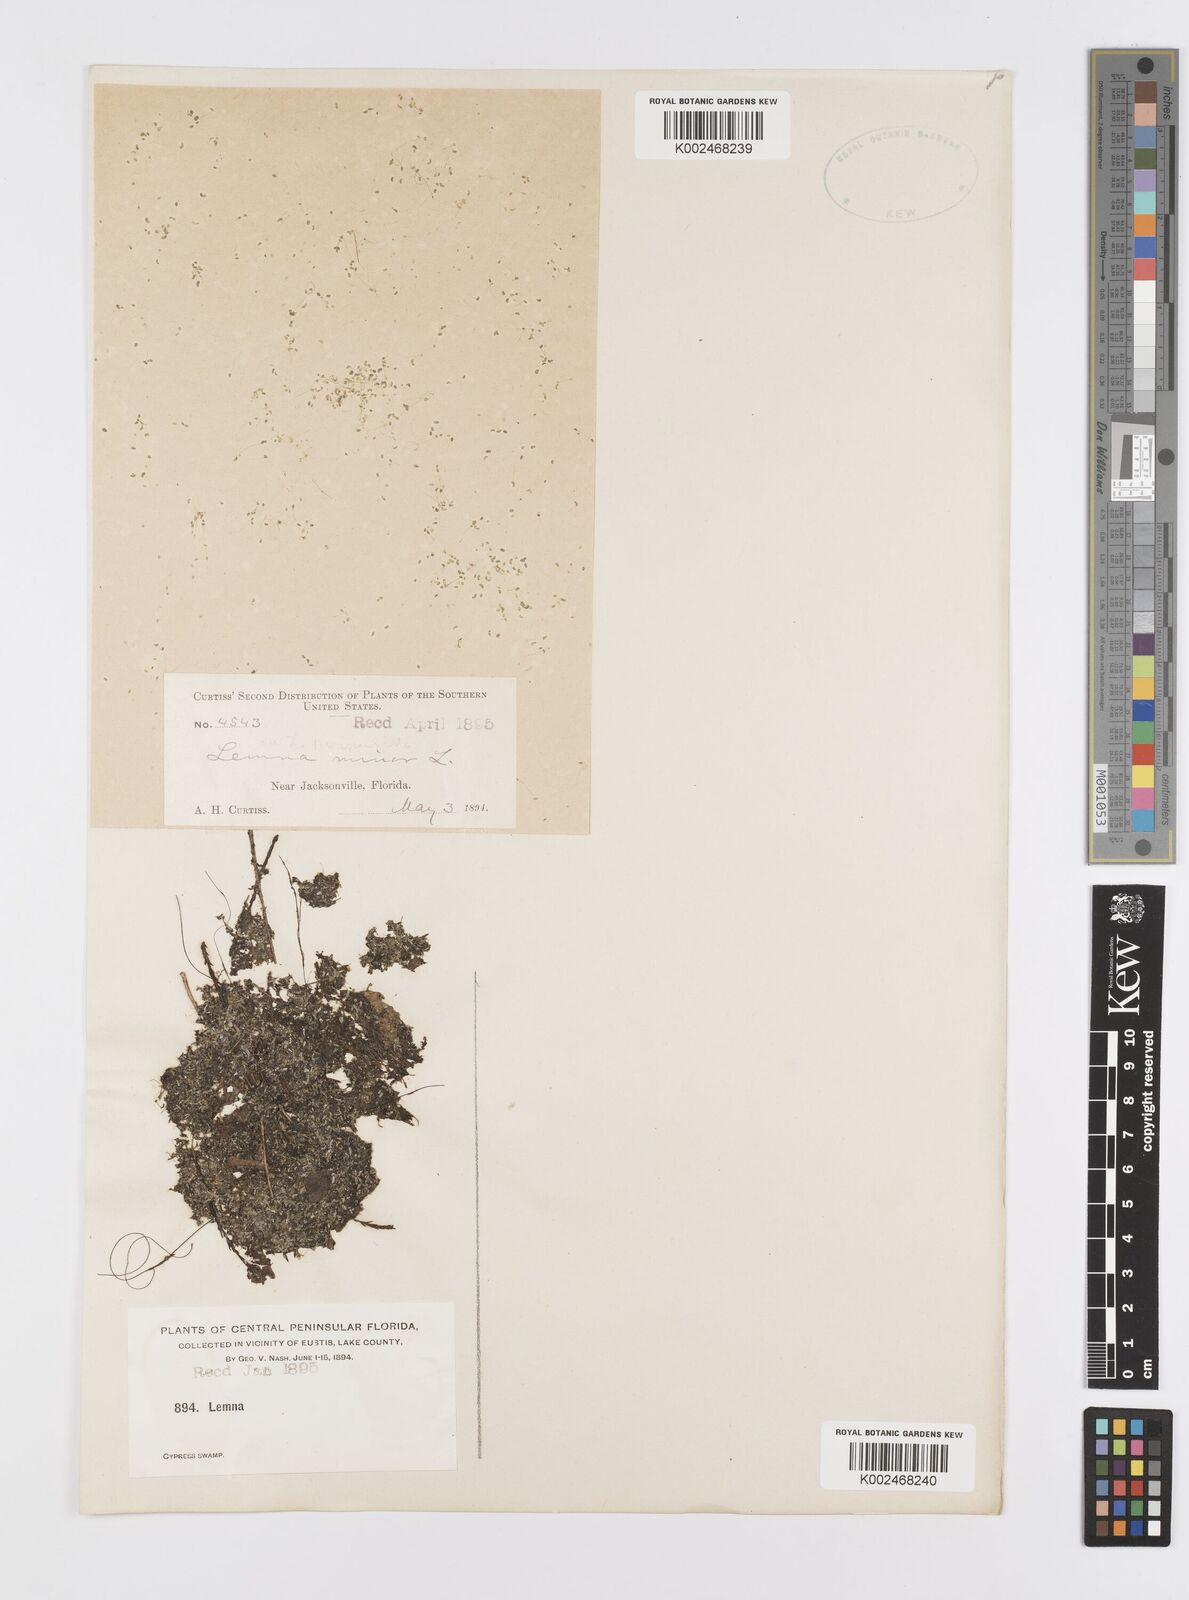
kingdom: Plantae
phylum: Tracheophyta
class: Liliopsida
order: Alismatales
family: Araceae
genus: Lemna
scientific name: Lemna minor
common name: Common duckweed
